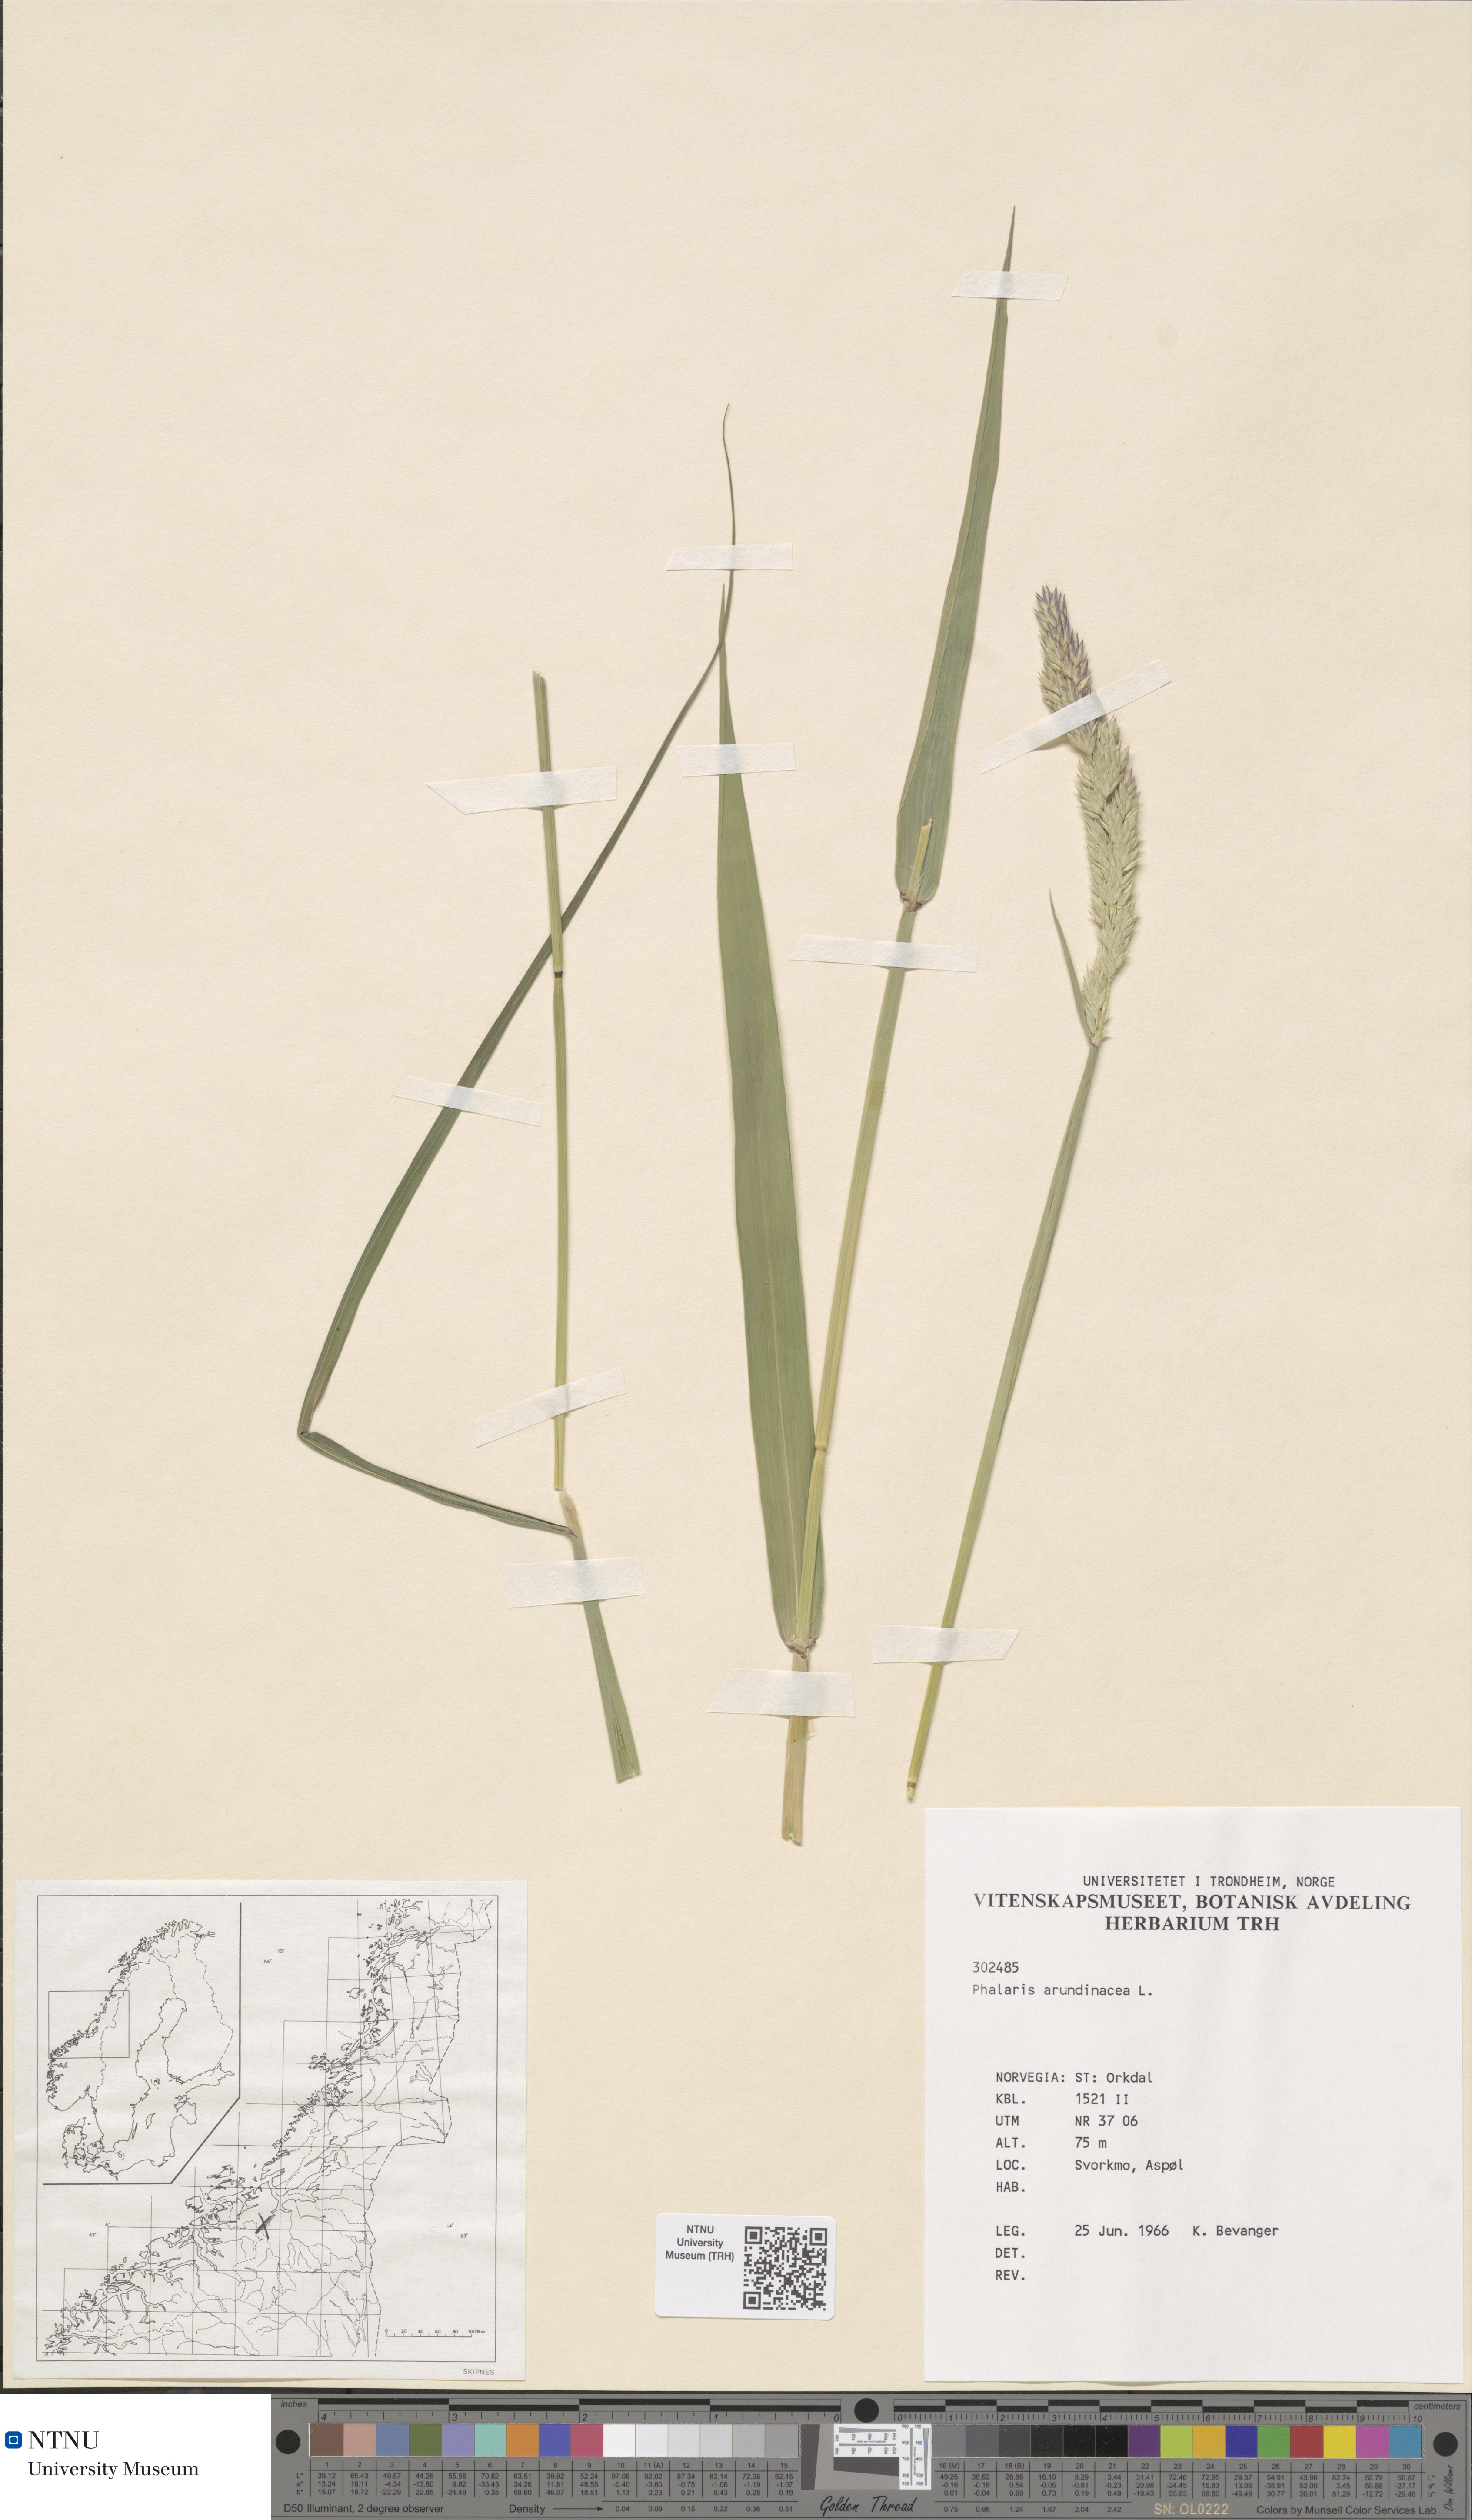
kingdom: Plantae
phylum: Tracheophyta
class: Liliopsida
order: Poales
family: Poaceae
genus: Phalaris
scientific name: Phalaris arundinacea
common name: Reed canary-grass
